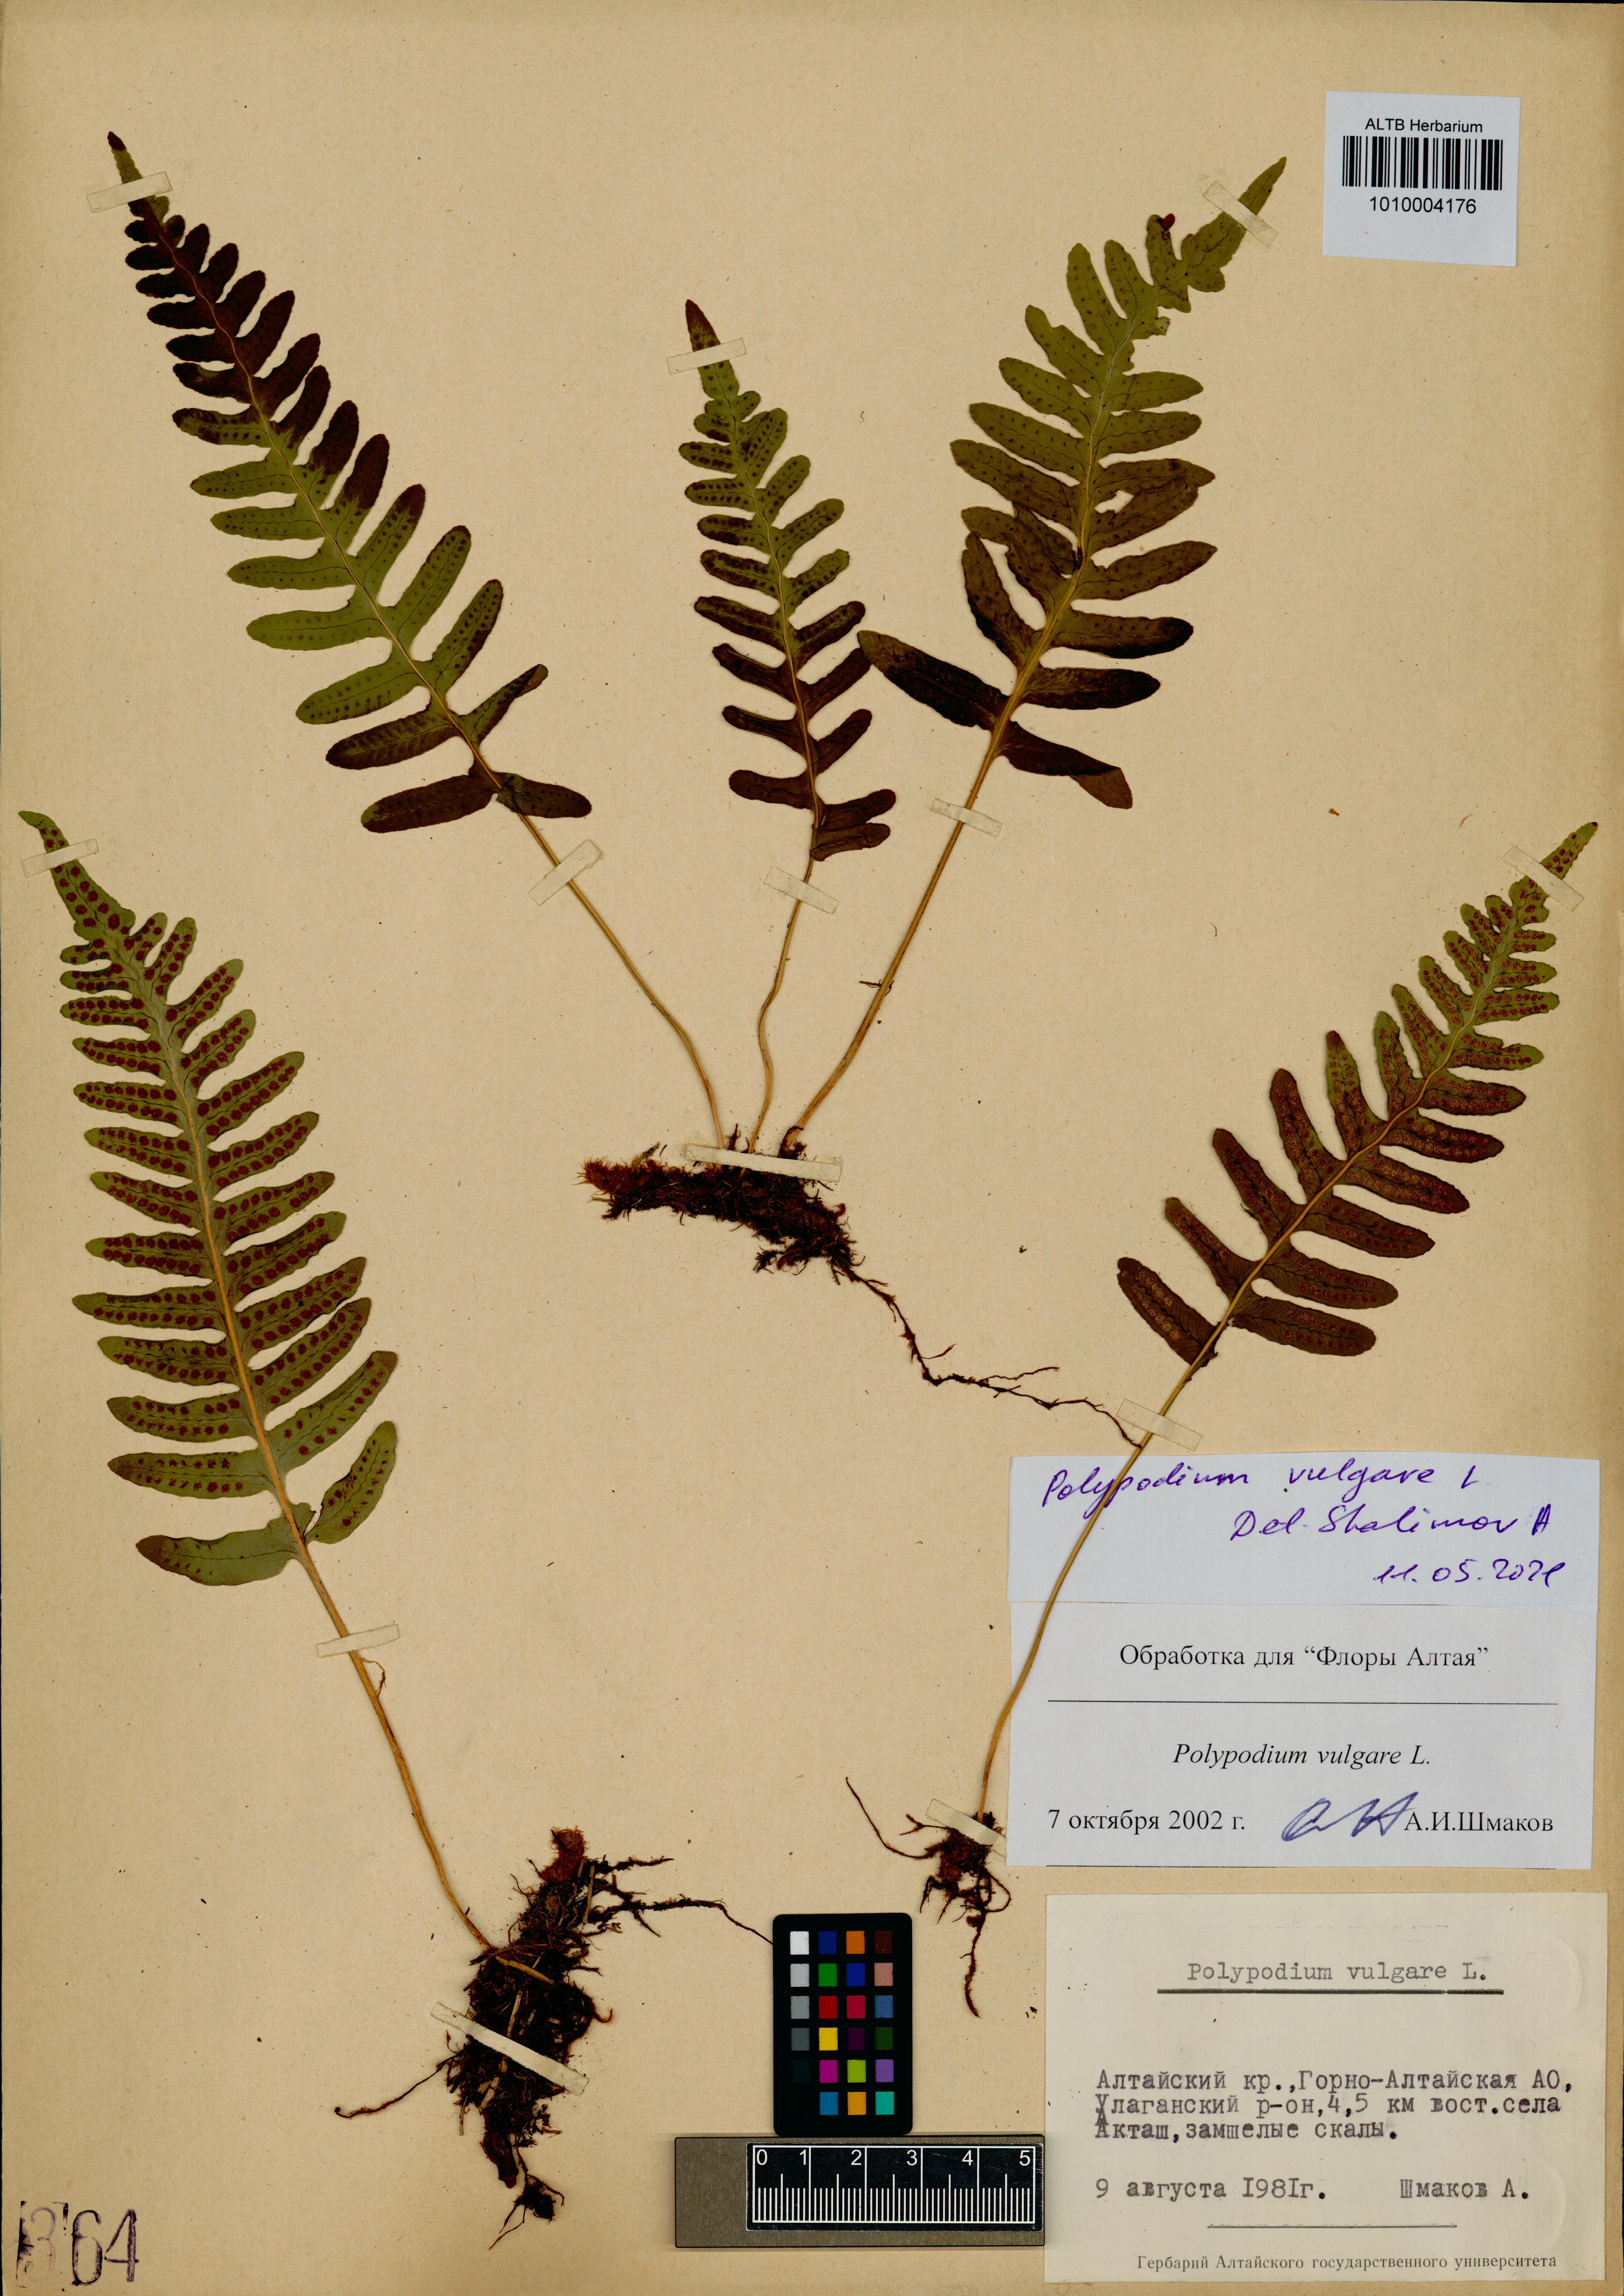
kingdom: Plantae
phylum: Tracheophyta
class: Polypodiopsida
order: Polypodiales
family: Polypodiaceae
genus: Polypodium
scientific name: Polypodium vulgare
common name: Common polypody
